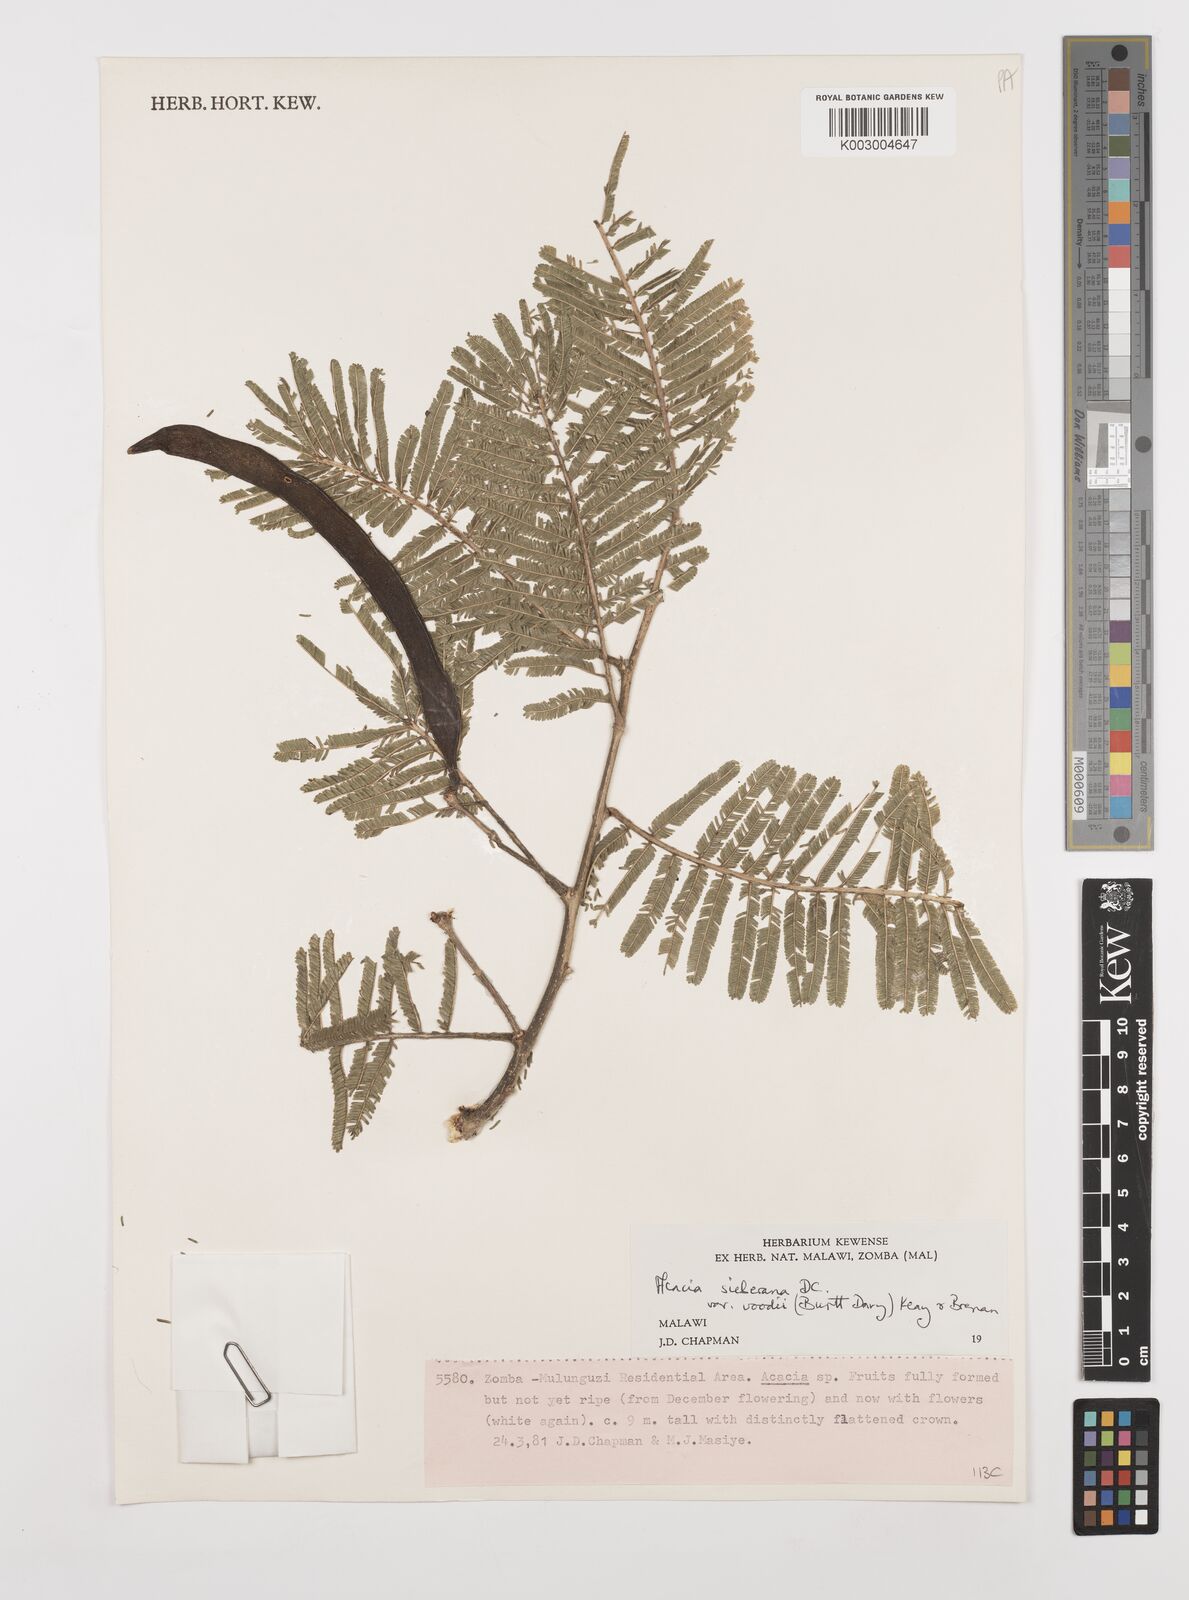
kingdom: Plantae
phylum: Tracheophyta
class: Magnoliopsida
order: Fabales
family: Fabaceae
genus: Vachellia
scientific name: Vachellia sieberiana
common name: Flat-topped thorn
